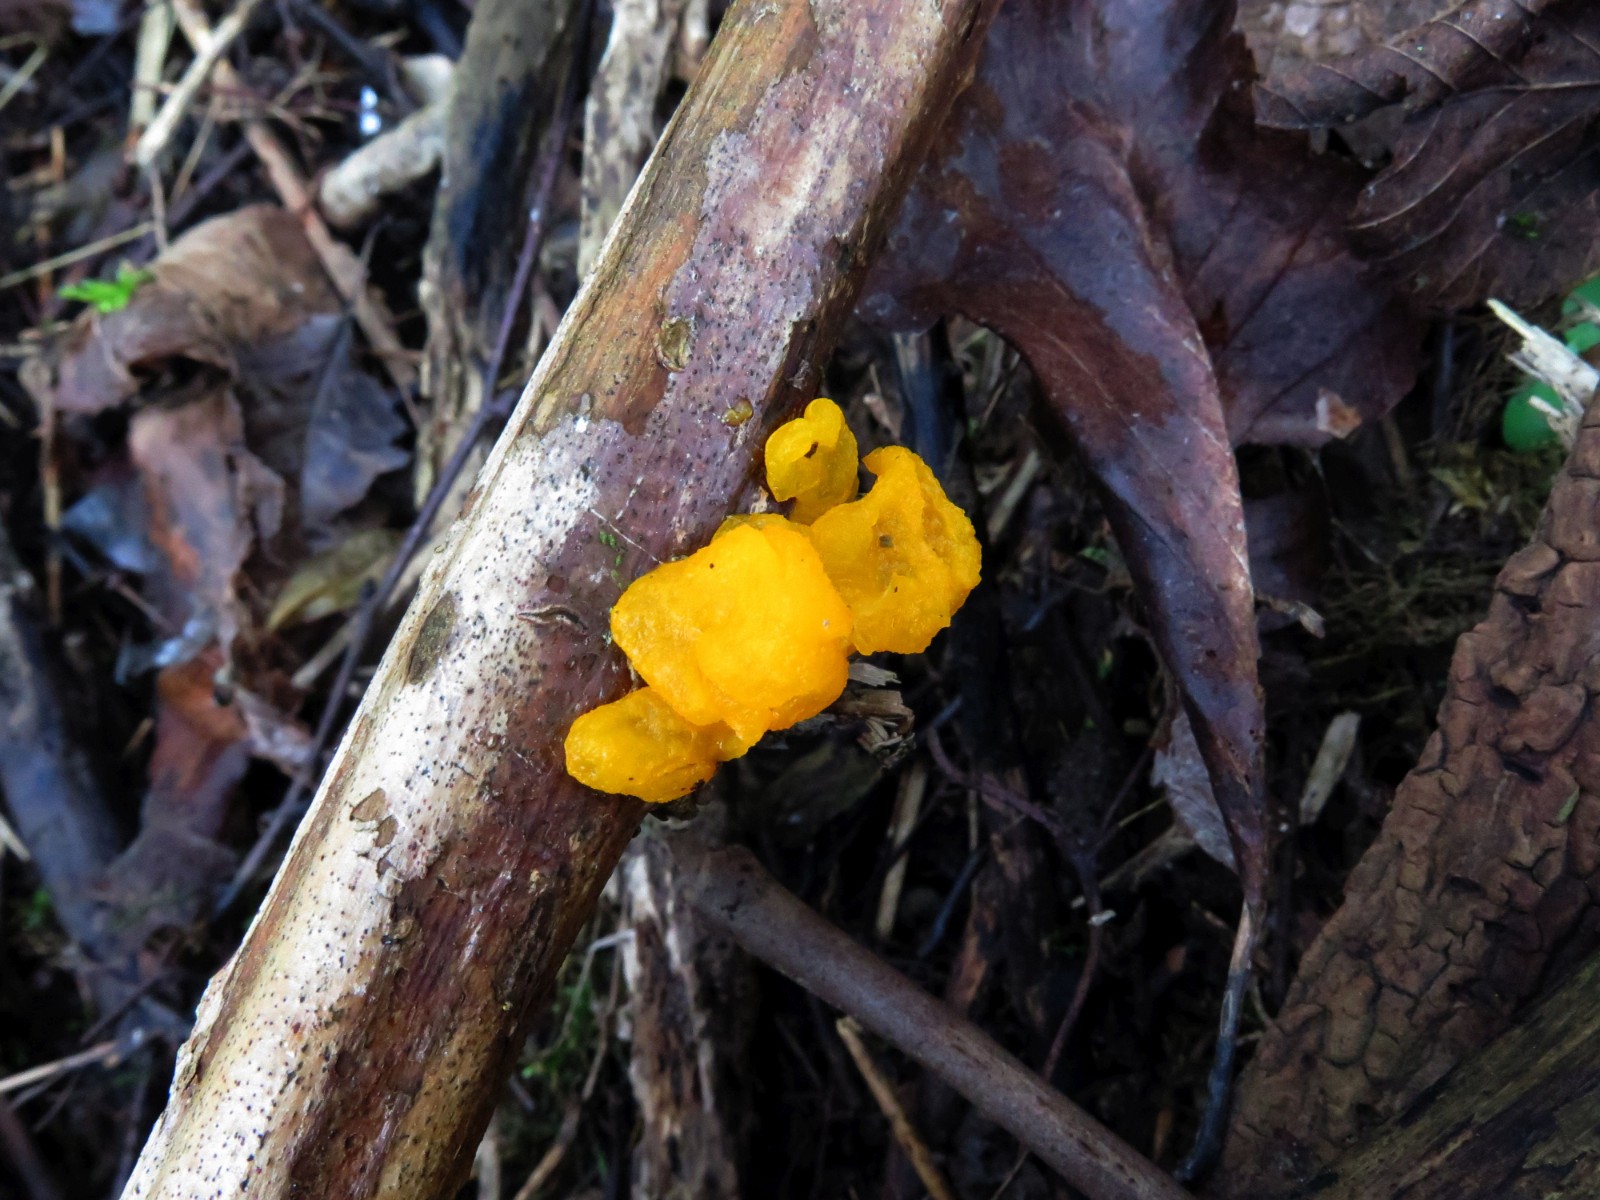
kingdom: Fungi
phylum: Basidiomycota
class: Tremellomycetes
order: Tremellales
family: Tremellaceae
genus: Tremella
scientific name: Tremella mesenterica
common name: gul bævresvamp
